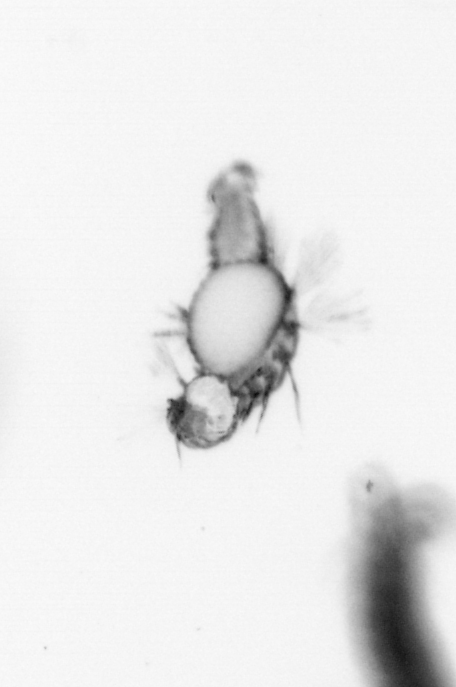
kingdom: Animalia
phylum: Annelida
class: Polychaeta
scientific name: Polychaeta
